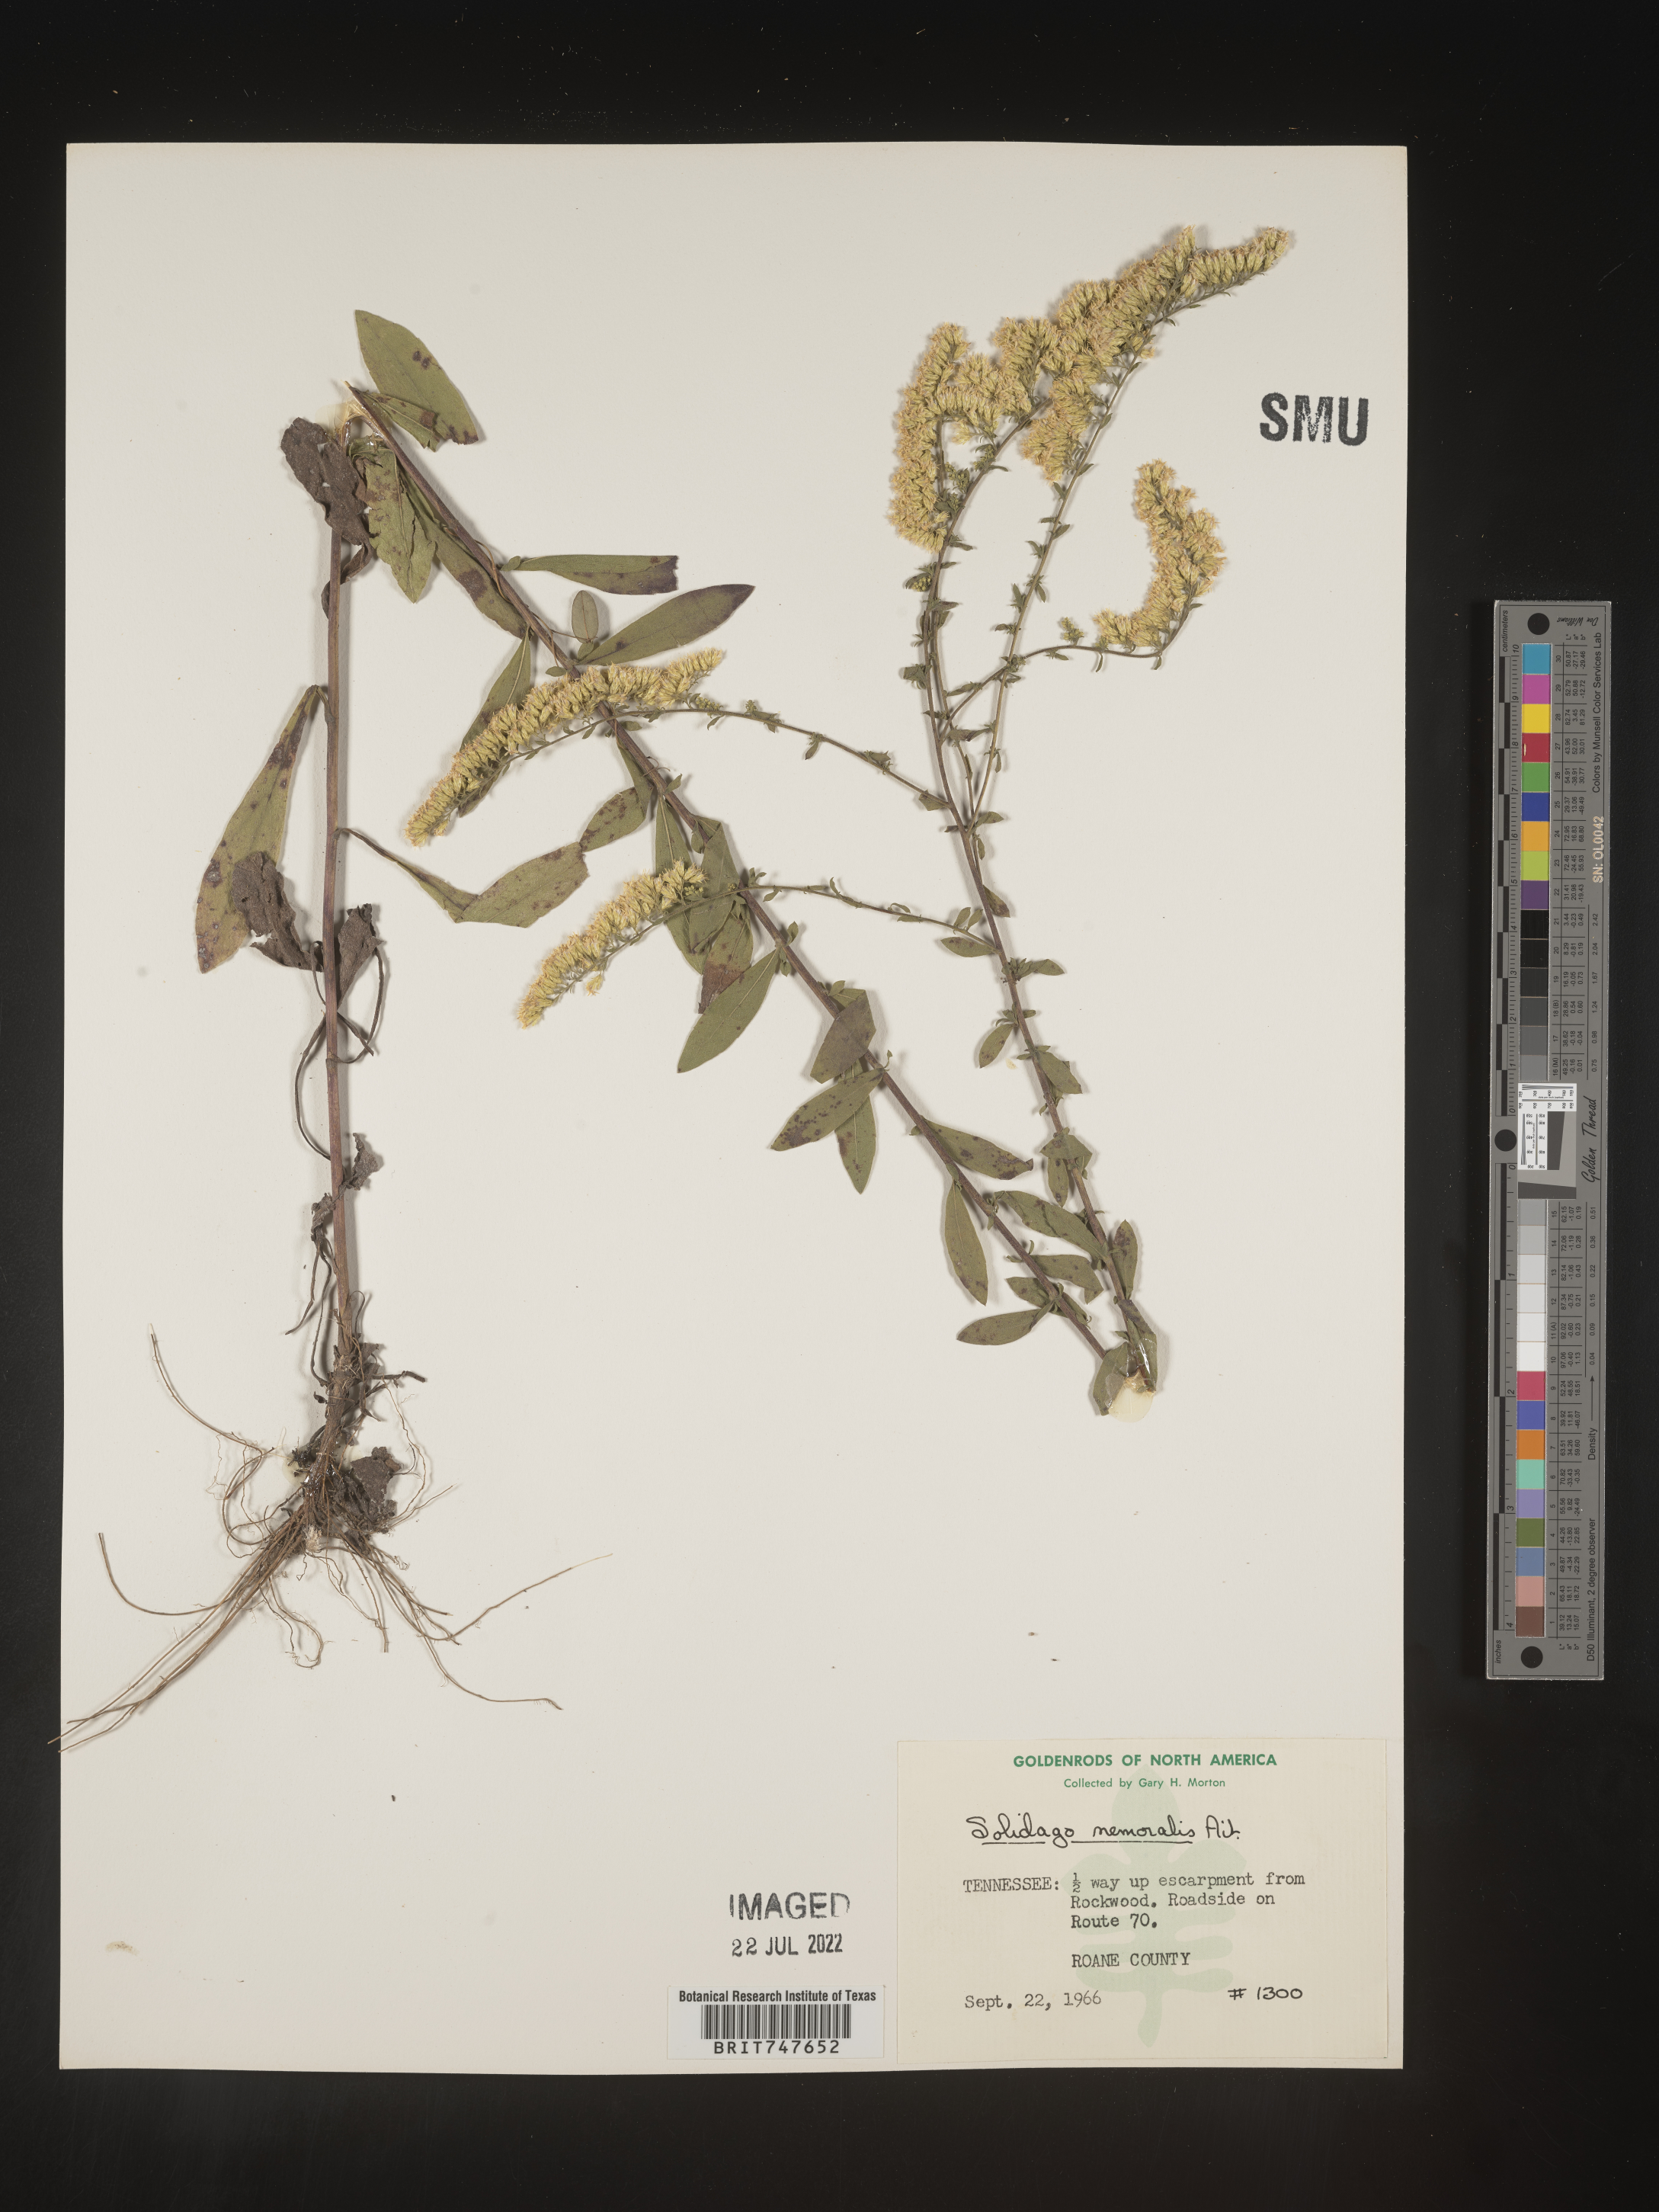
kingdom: Plantae
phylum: Tracheophyta
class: Magnoliopsida
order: Asterales
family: Asteraceae
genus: Solidago
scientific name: Solidago nemoralis
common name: Grey goldenrod
